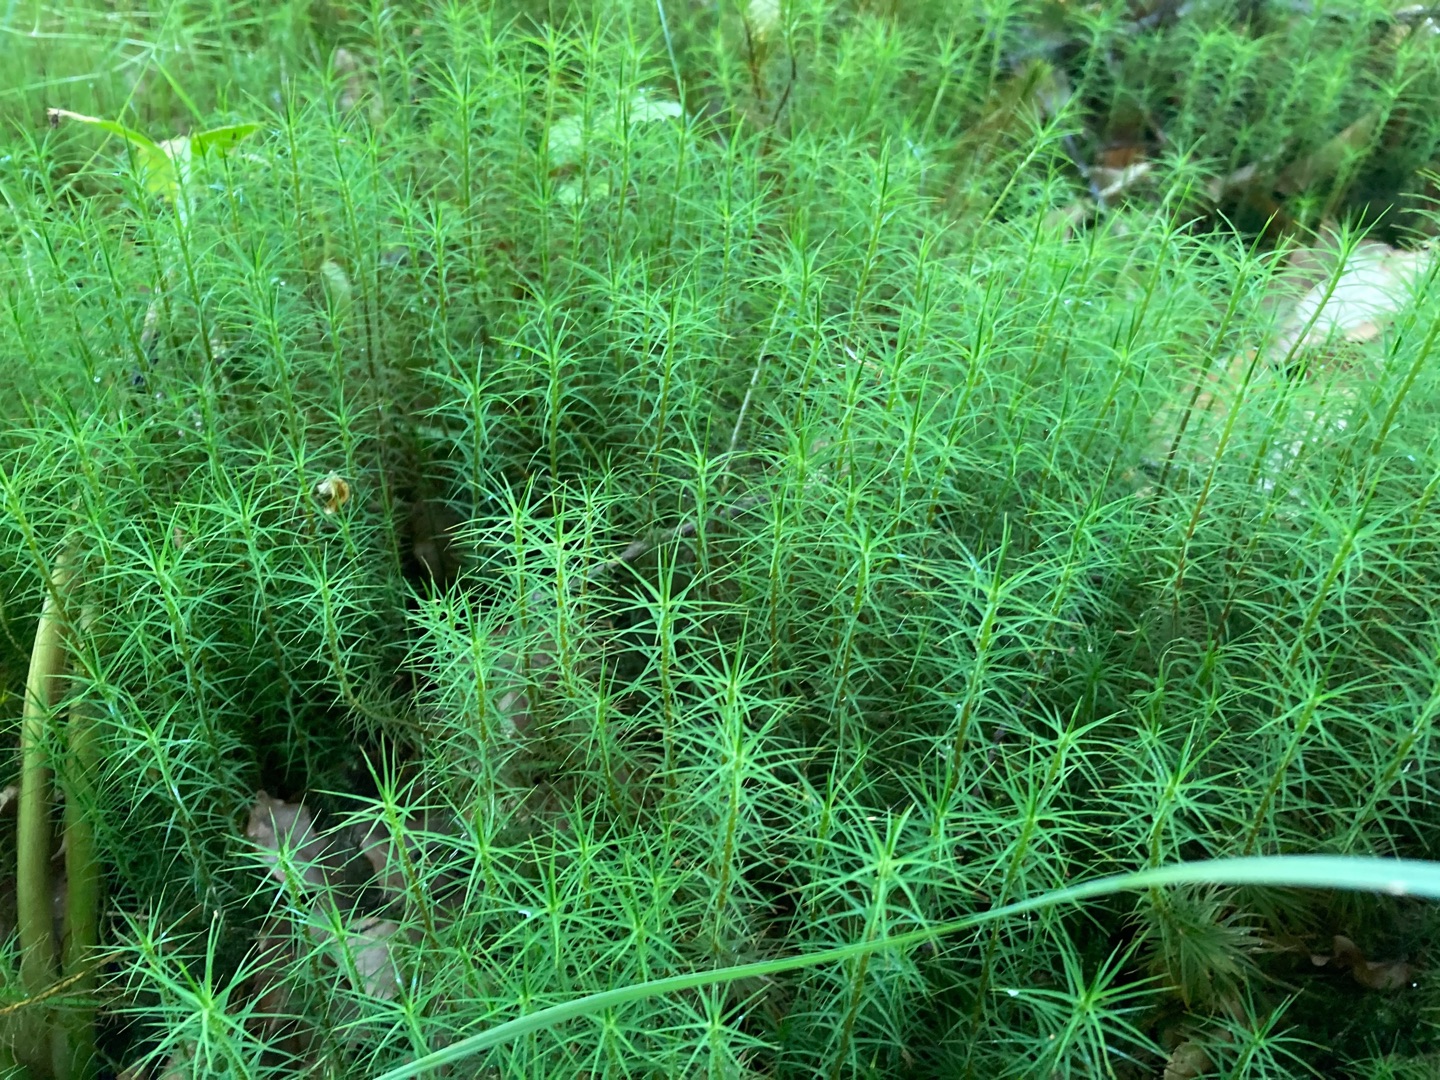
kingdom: Plantae
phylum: Bryophyta
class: Polytrichopsida
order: Polytrichales
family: Polytrichaceae
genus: Polytrichum
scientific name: Polytrichum commune
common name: Almindelig jomfruhår
